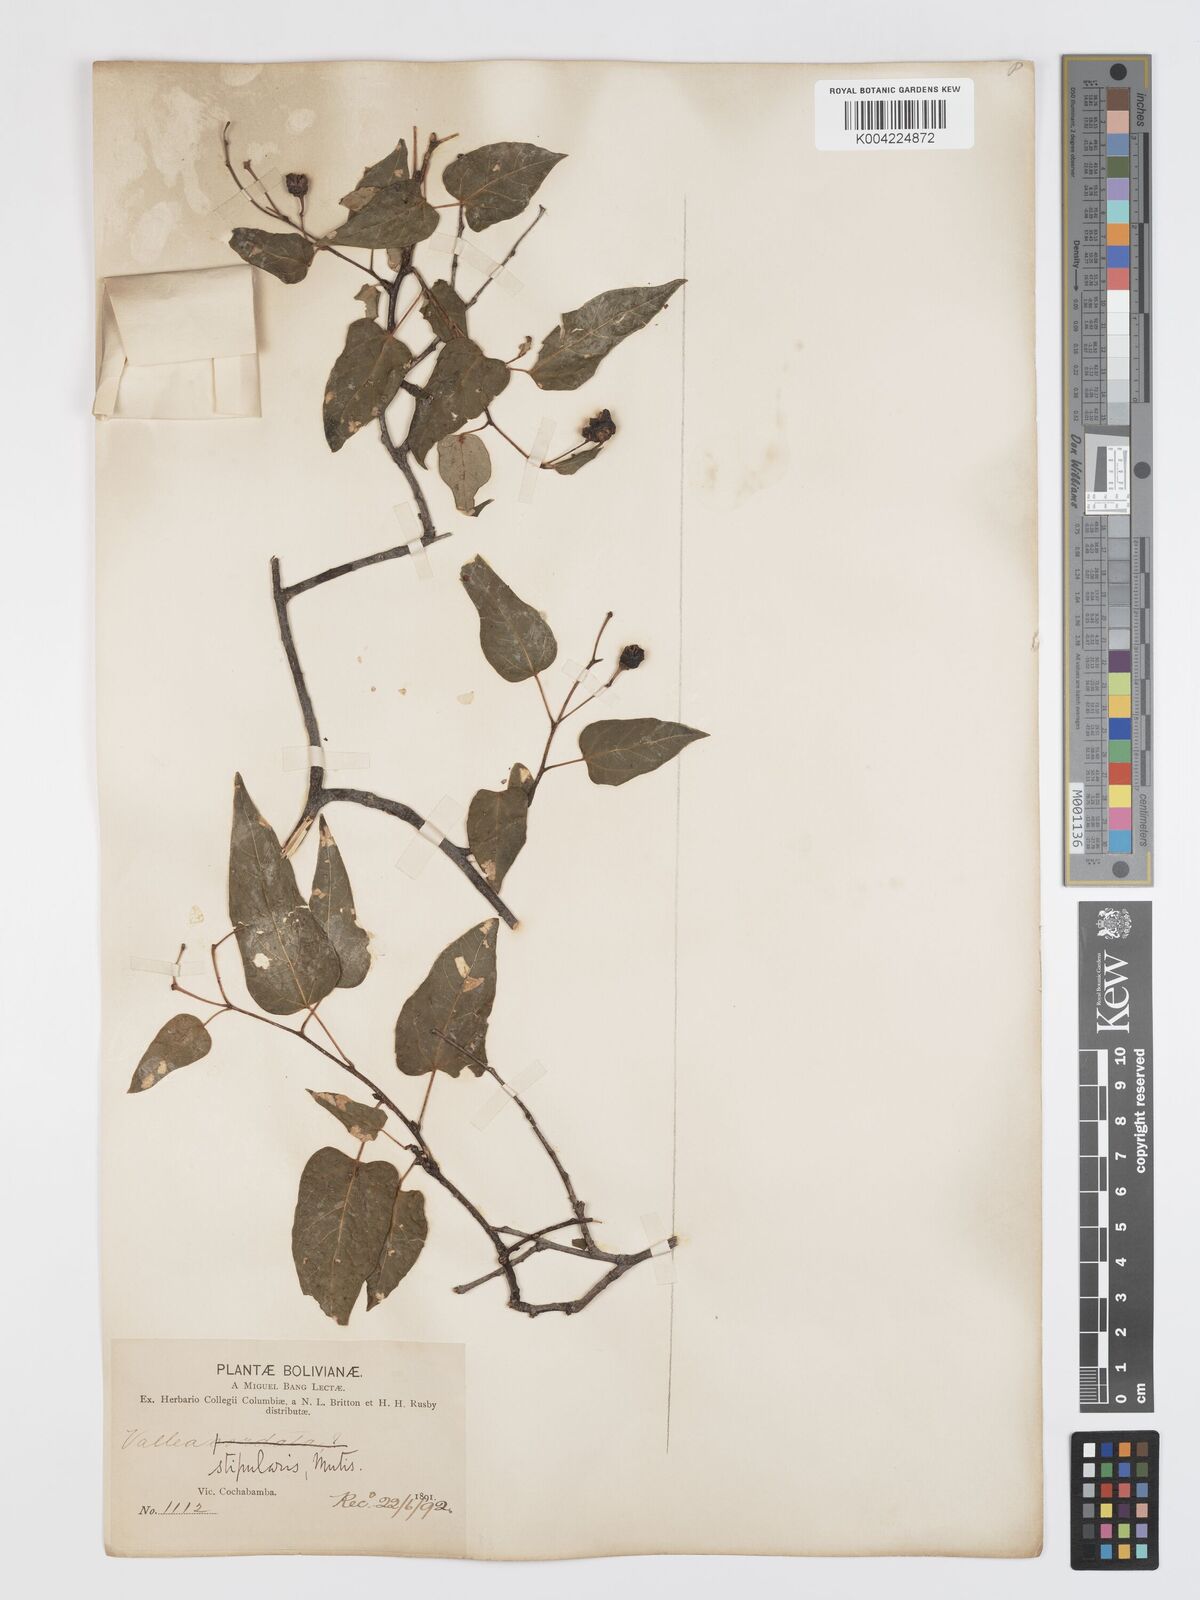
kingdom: Plantae
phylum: Tracheophyta
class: Magnoliopsida
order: Oxalidales
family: Elaeocarpaceae
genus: Vallea
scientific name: Vallea stipularis
